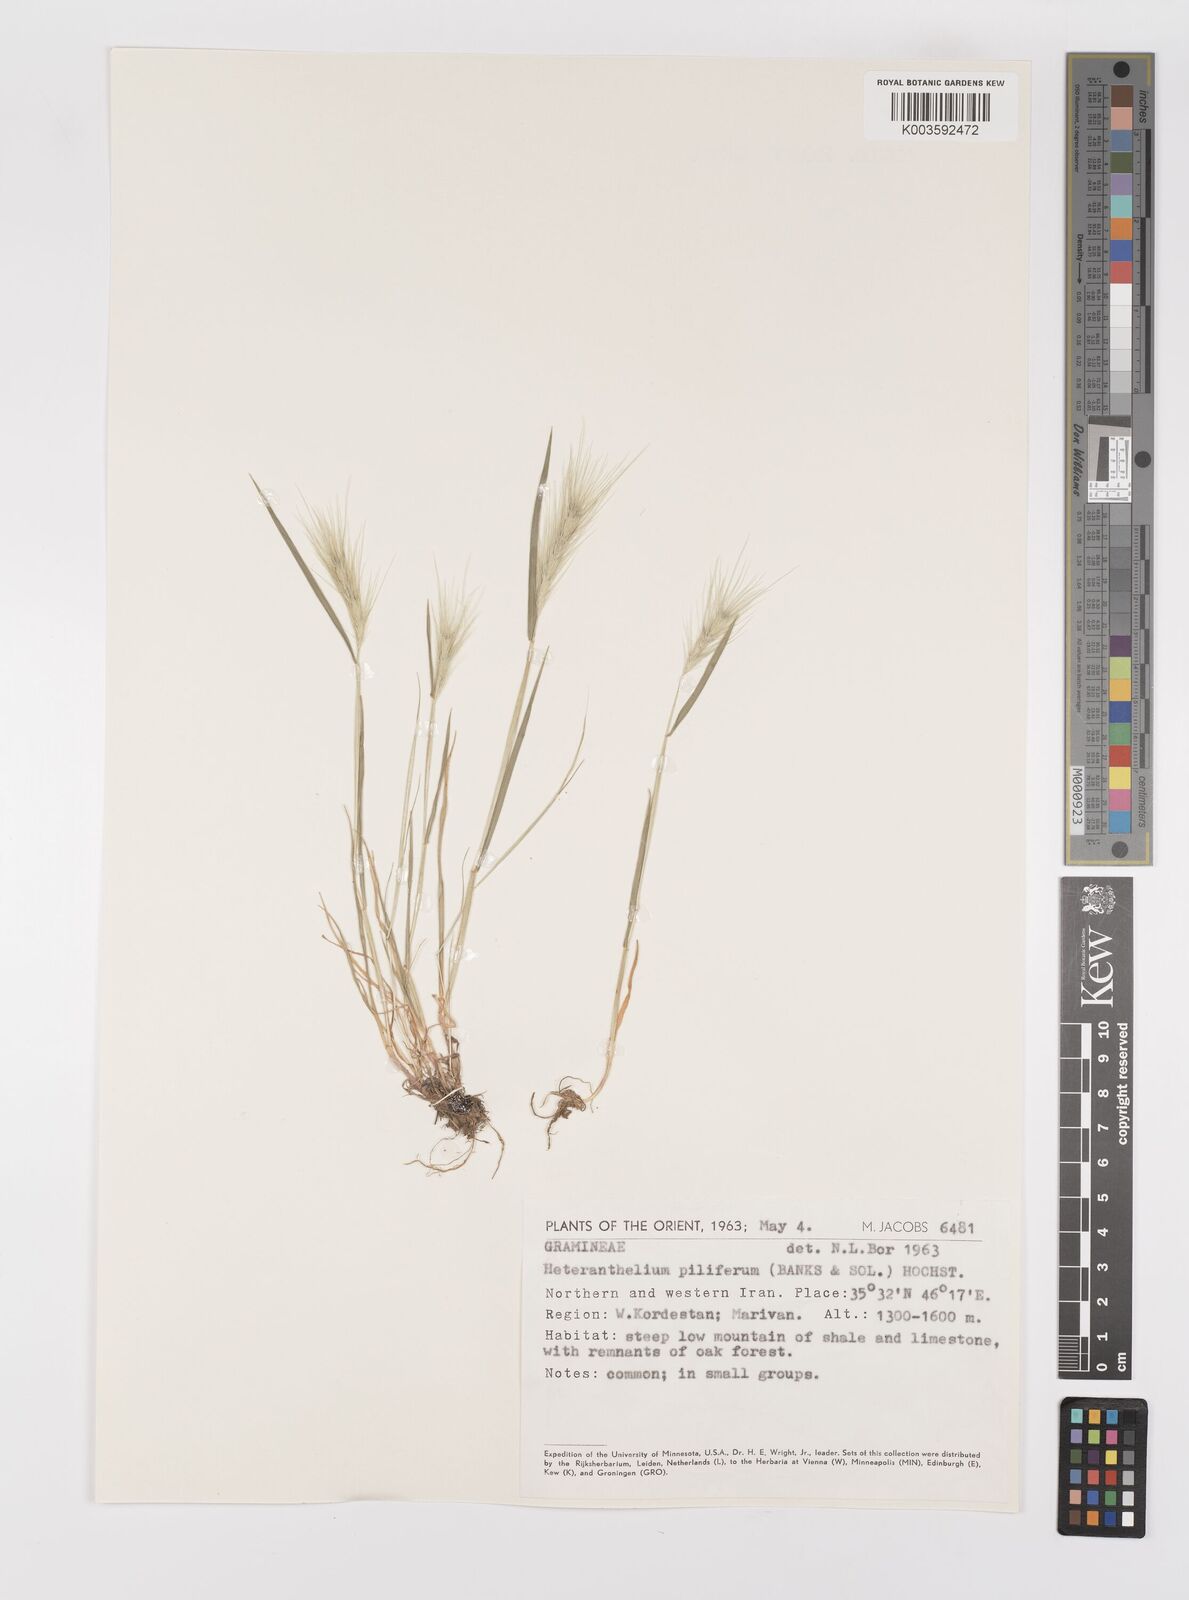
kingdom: Plantae
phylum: Tracheophyta
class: Liliopsida
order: Poales
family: Poaceae
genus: Heteranthelium
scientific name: Heteranthelium piliferum
